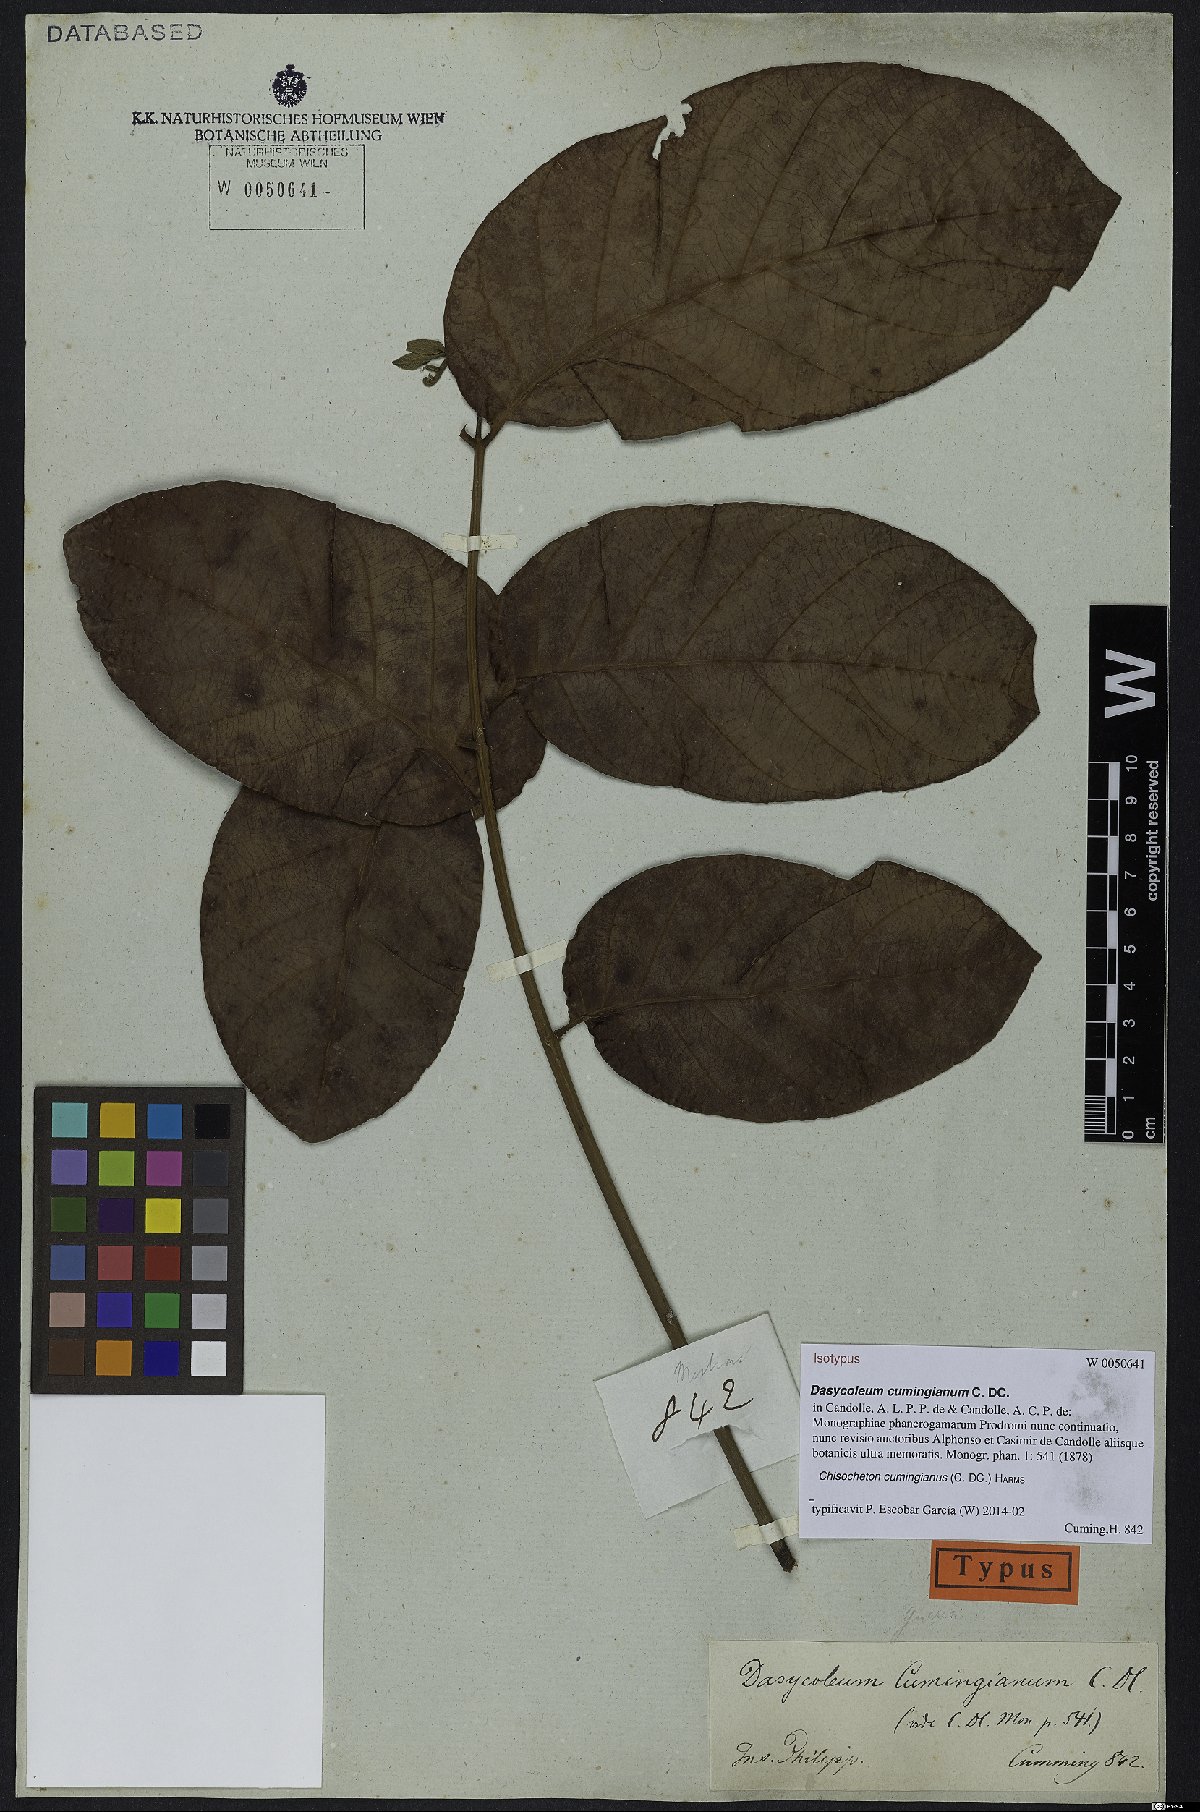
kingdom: Plantae
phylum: Tracheophyta
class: Magnoliopsida
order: Sapindales
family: Meliaceae
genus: Chisocheton
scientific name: Chisocheton cumingianus
